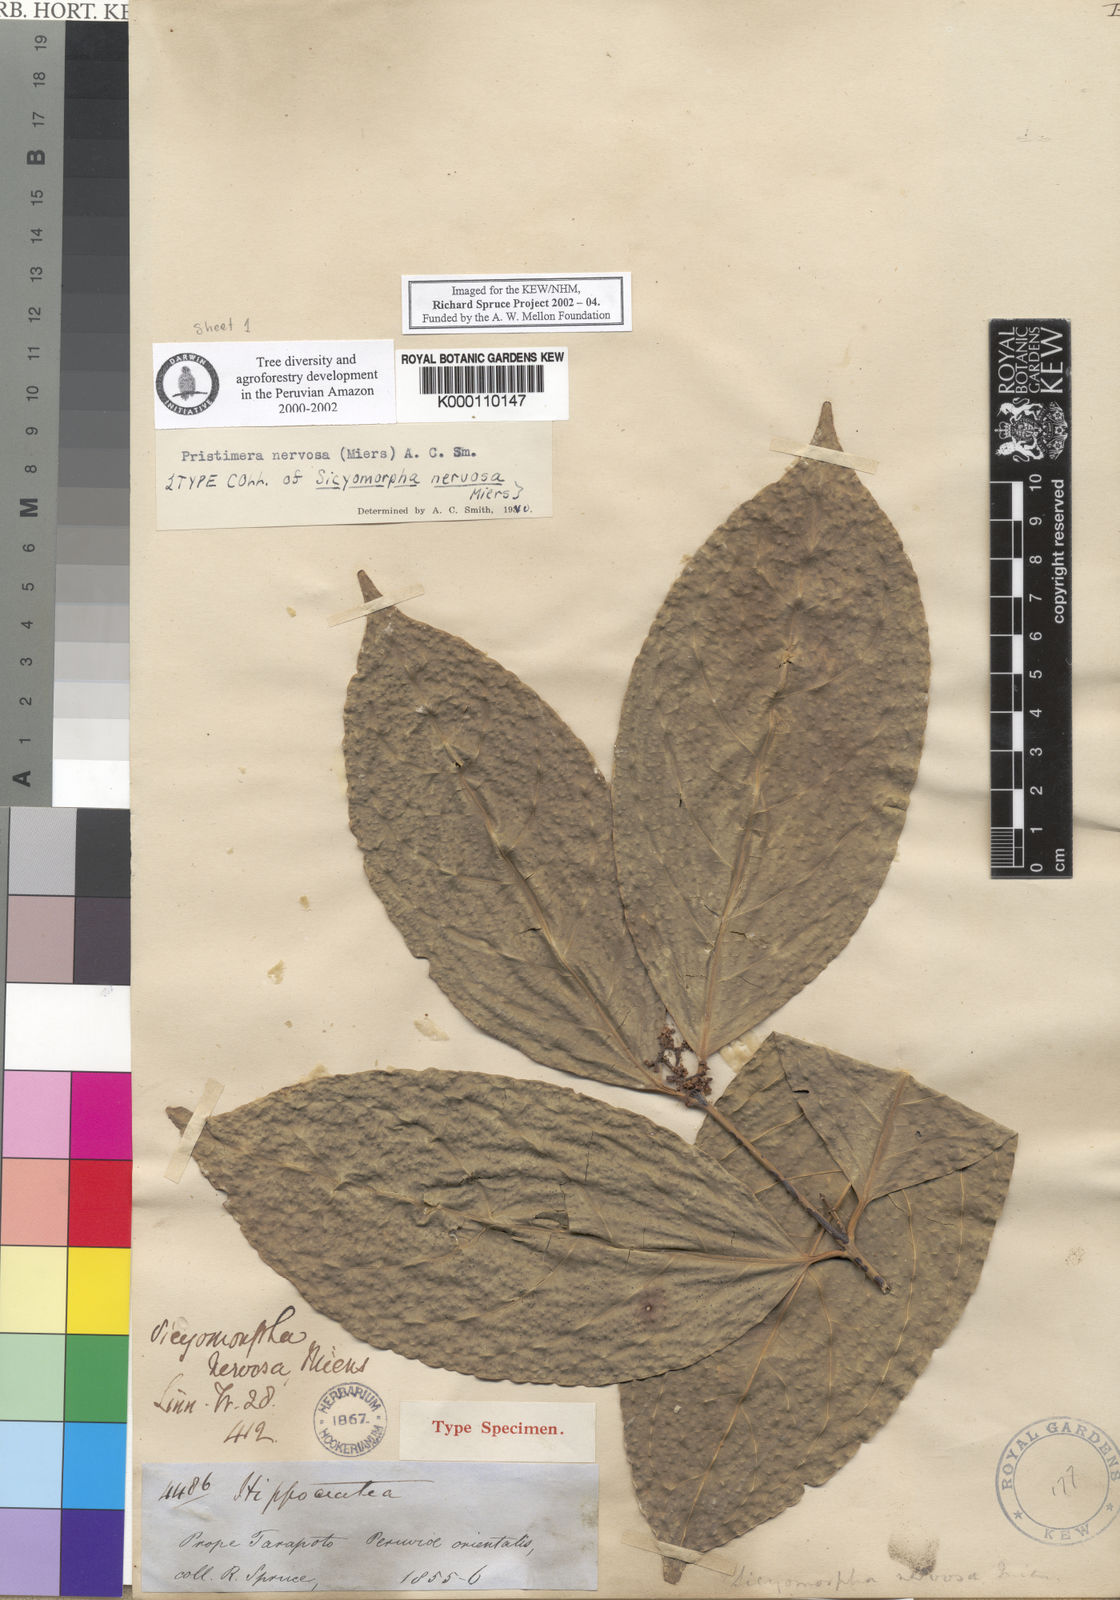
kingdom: Plantae
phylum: Tracheophyta
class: Magnoliopsida
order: Celastrales
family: Celastraceae
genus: Pristimera
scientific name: Pristimera nervosa
